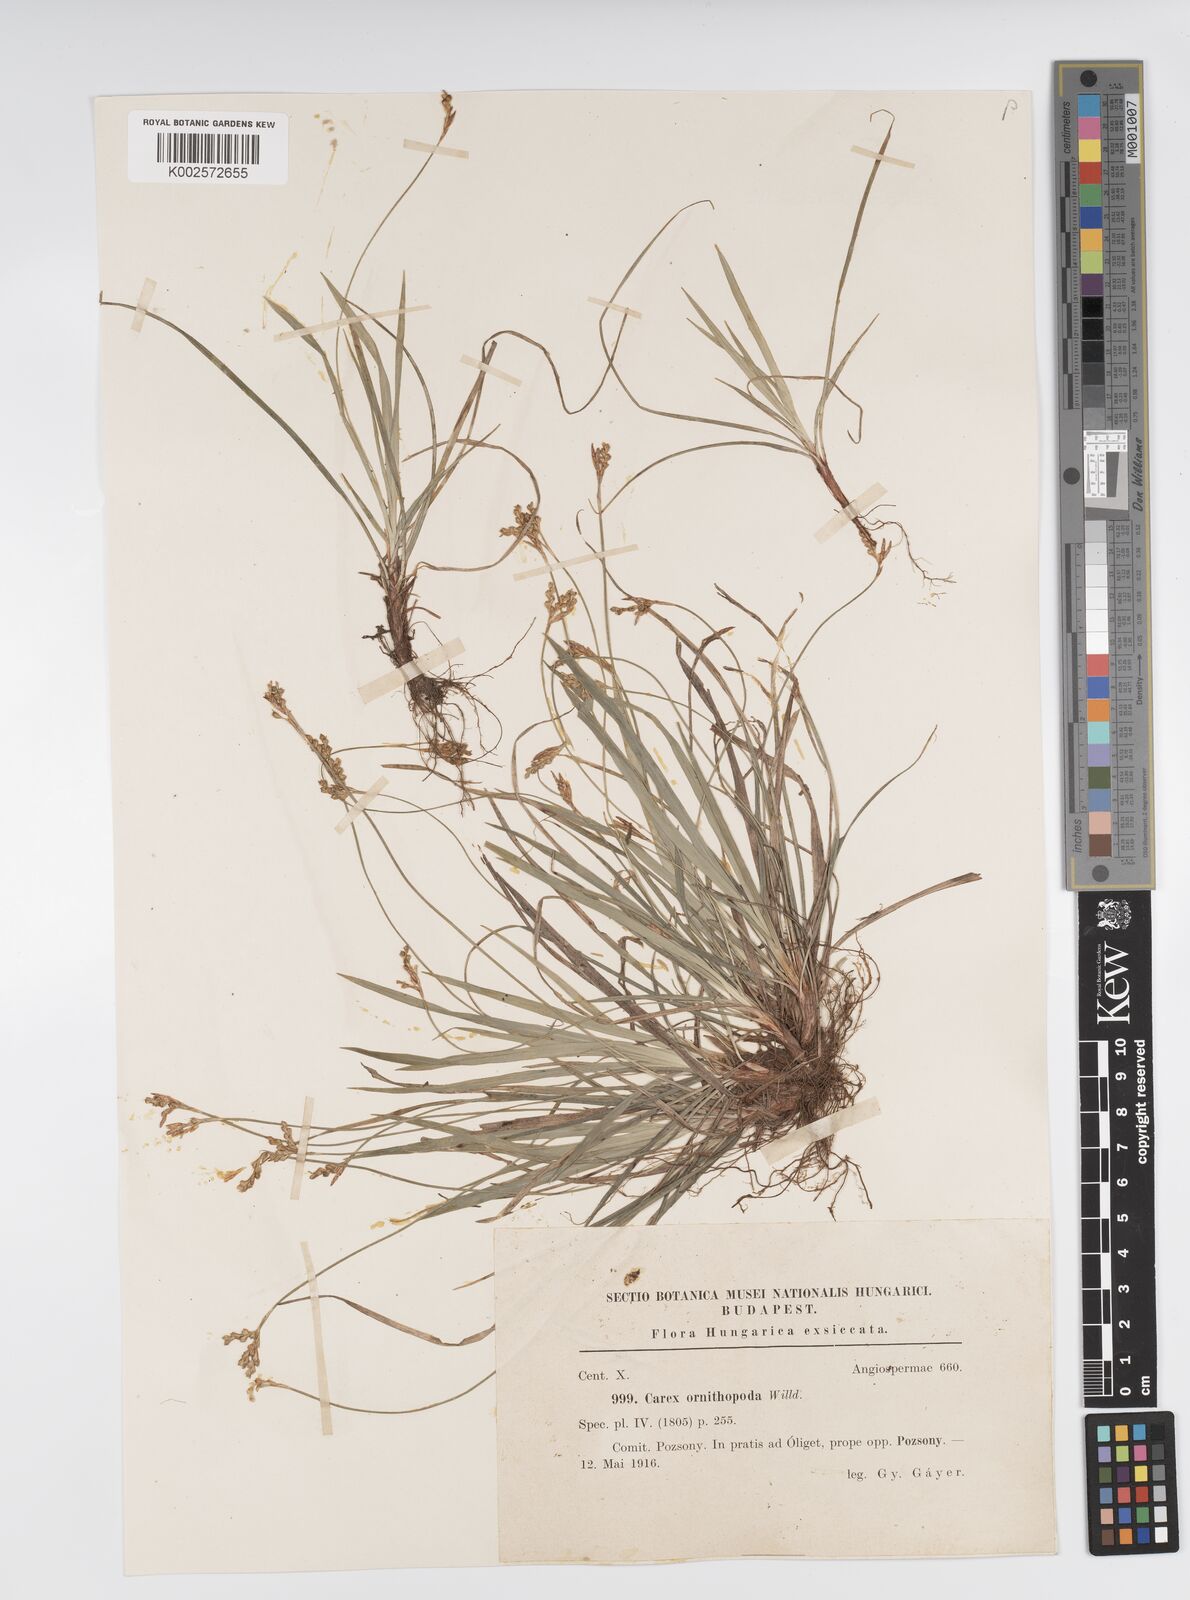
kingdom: Plantae
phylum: Tracheophyta
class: Liliopsida
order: Poales
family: Cyperaceae
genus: Carex
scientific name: Carex ornithopoda
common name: Bird's-foot sedge
